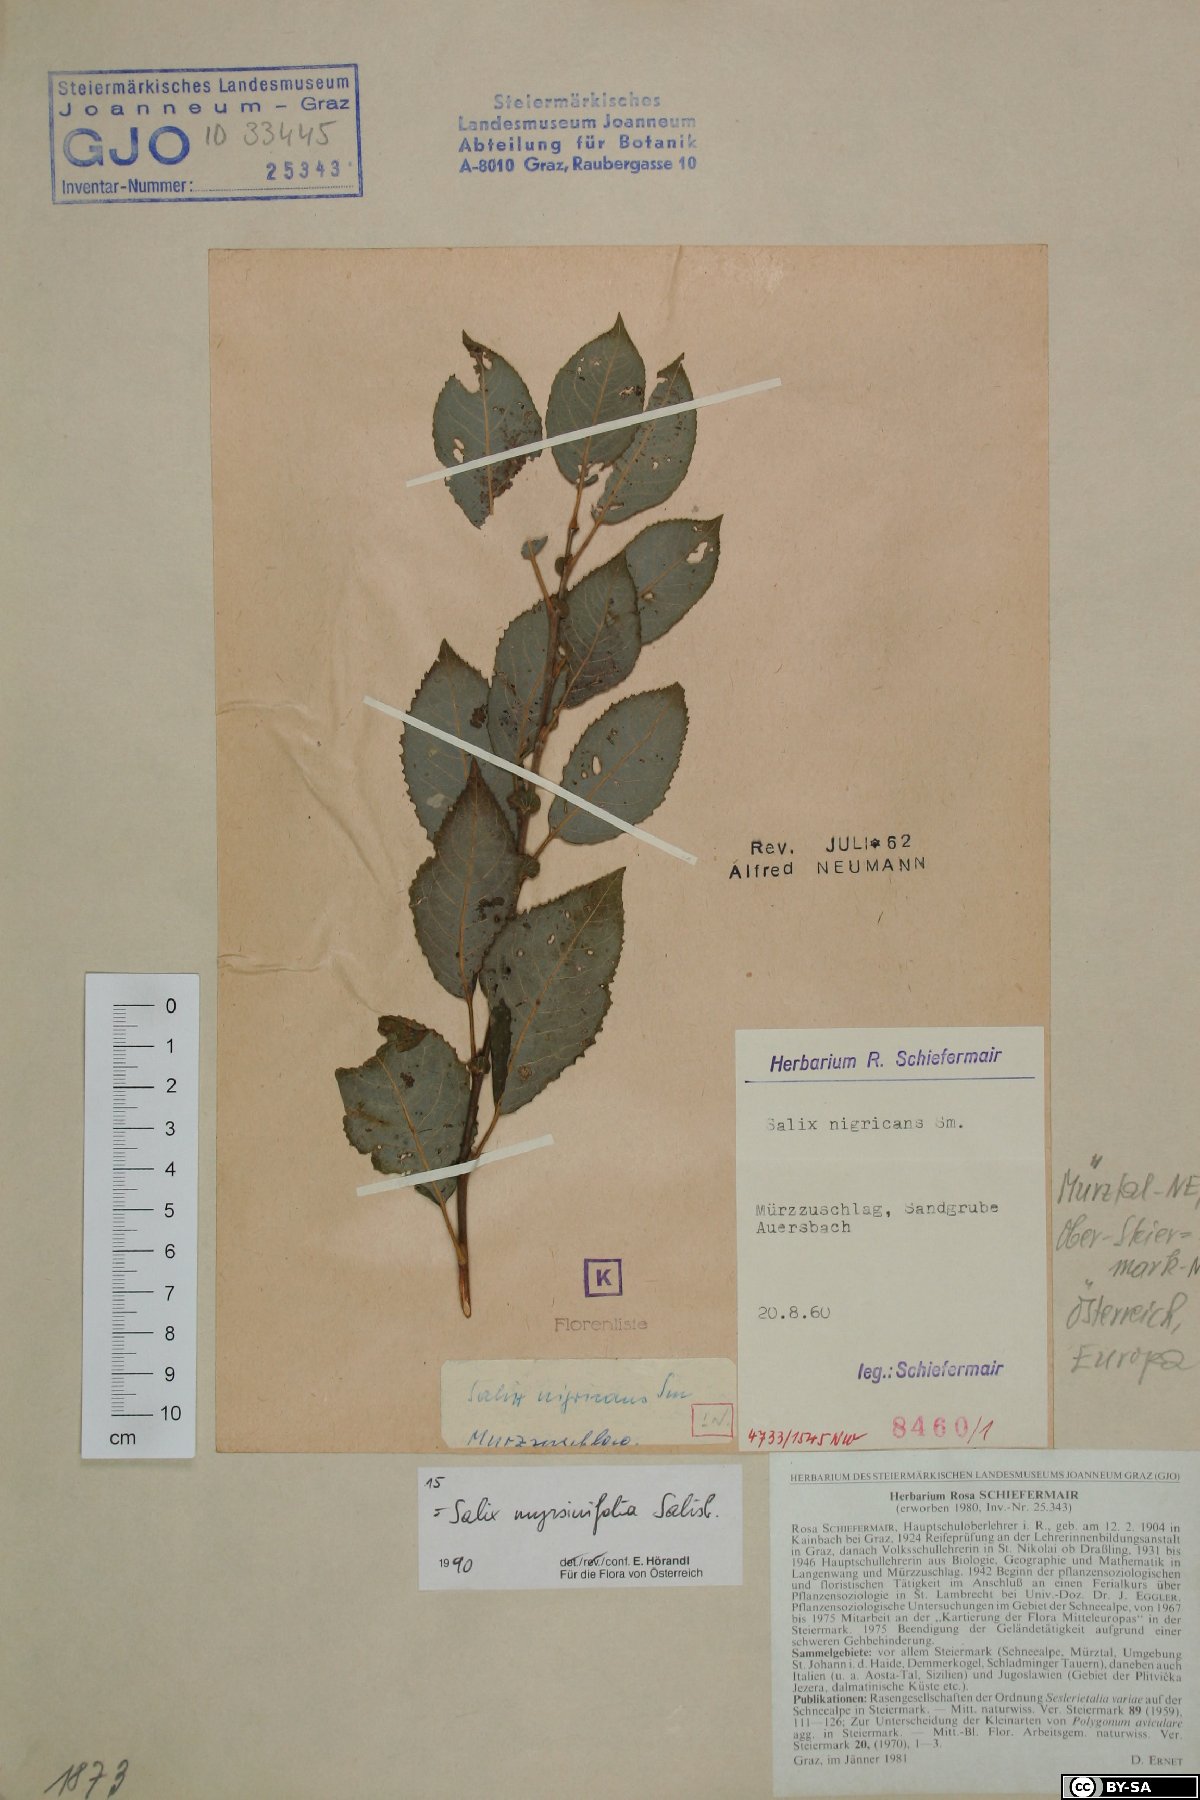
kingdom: Plantae
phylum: Tracheophyta
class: Magnoliopsida
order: Malpighiales
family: Salicaceae
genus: Salix
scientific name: Salix myrsinifolia
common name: Dark-leaved willow
